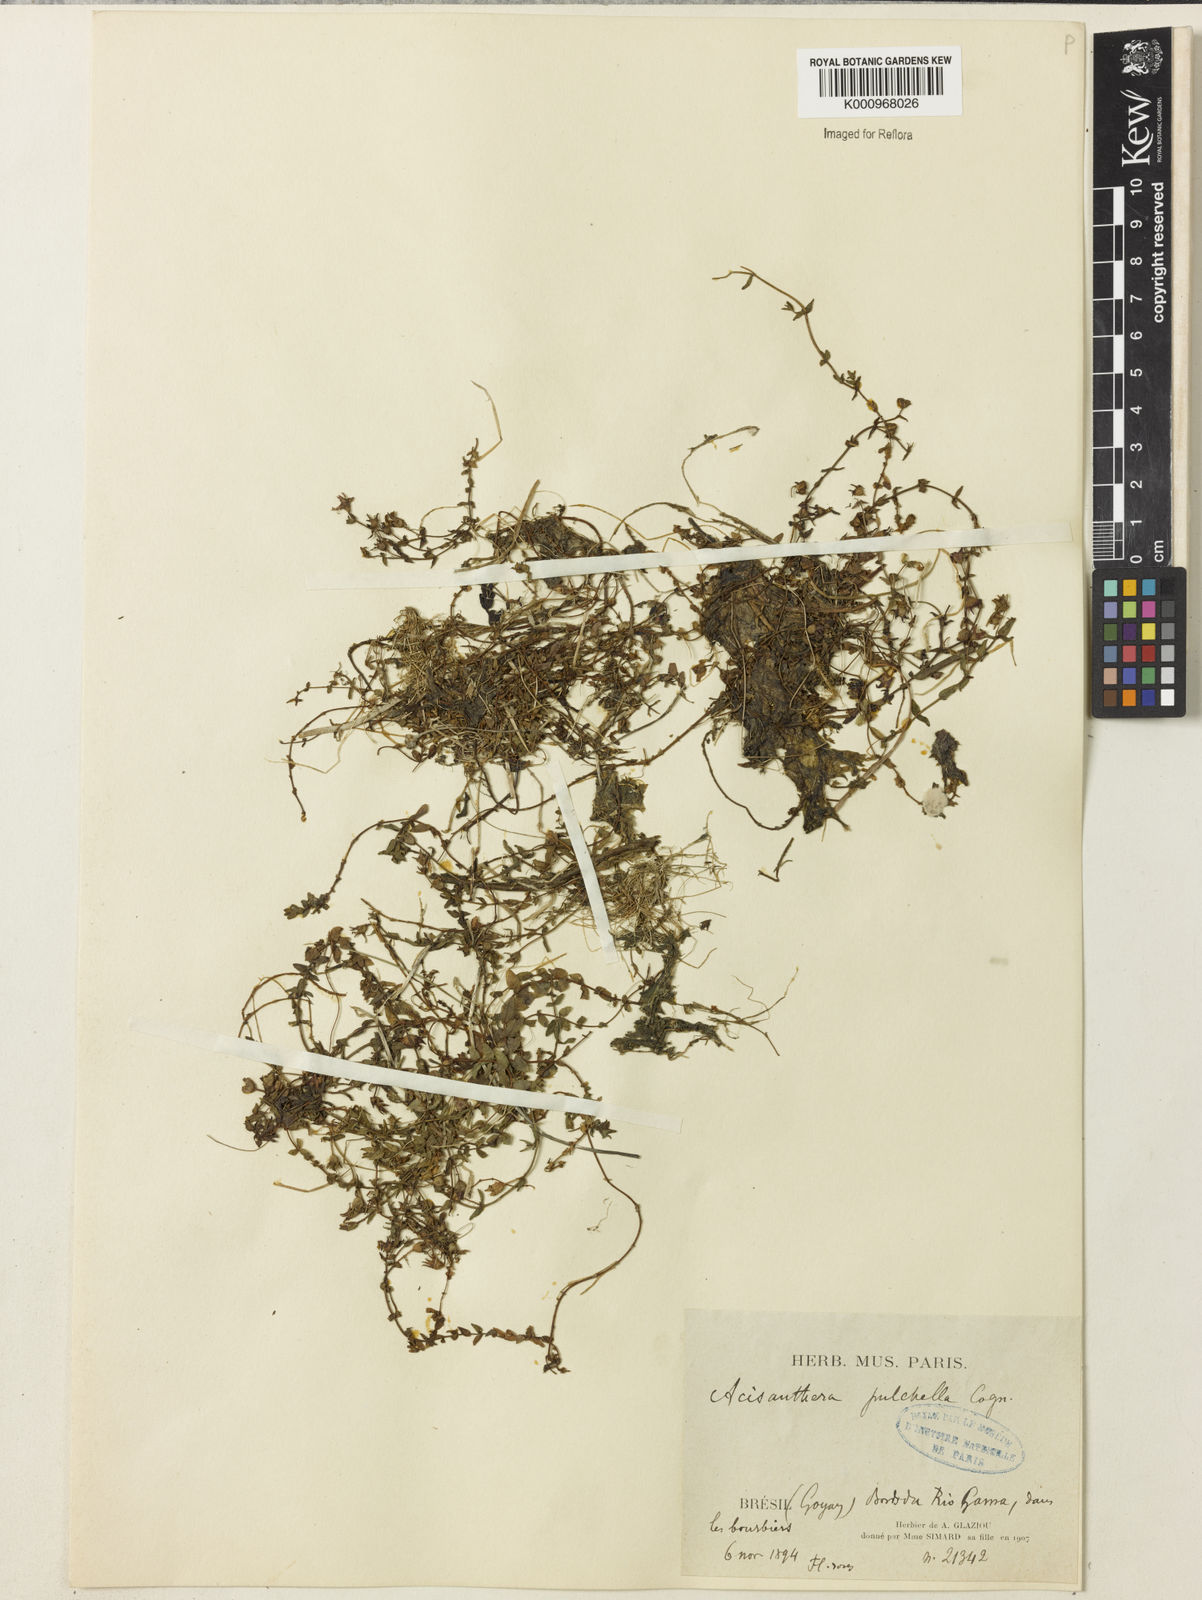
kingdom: Plantae
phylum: Tracheophyta
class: Magnoliopsida
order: Myrtales
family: Melastomataceae
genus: Acisanthera
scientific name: Acisanthera pulchella
